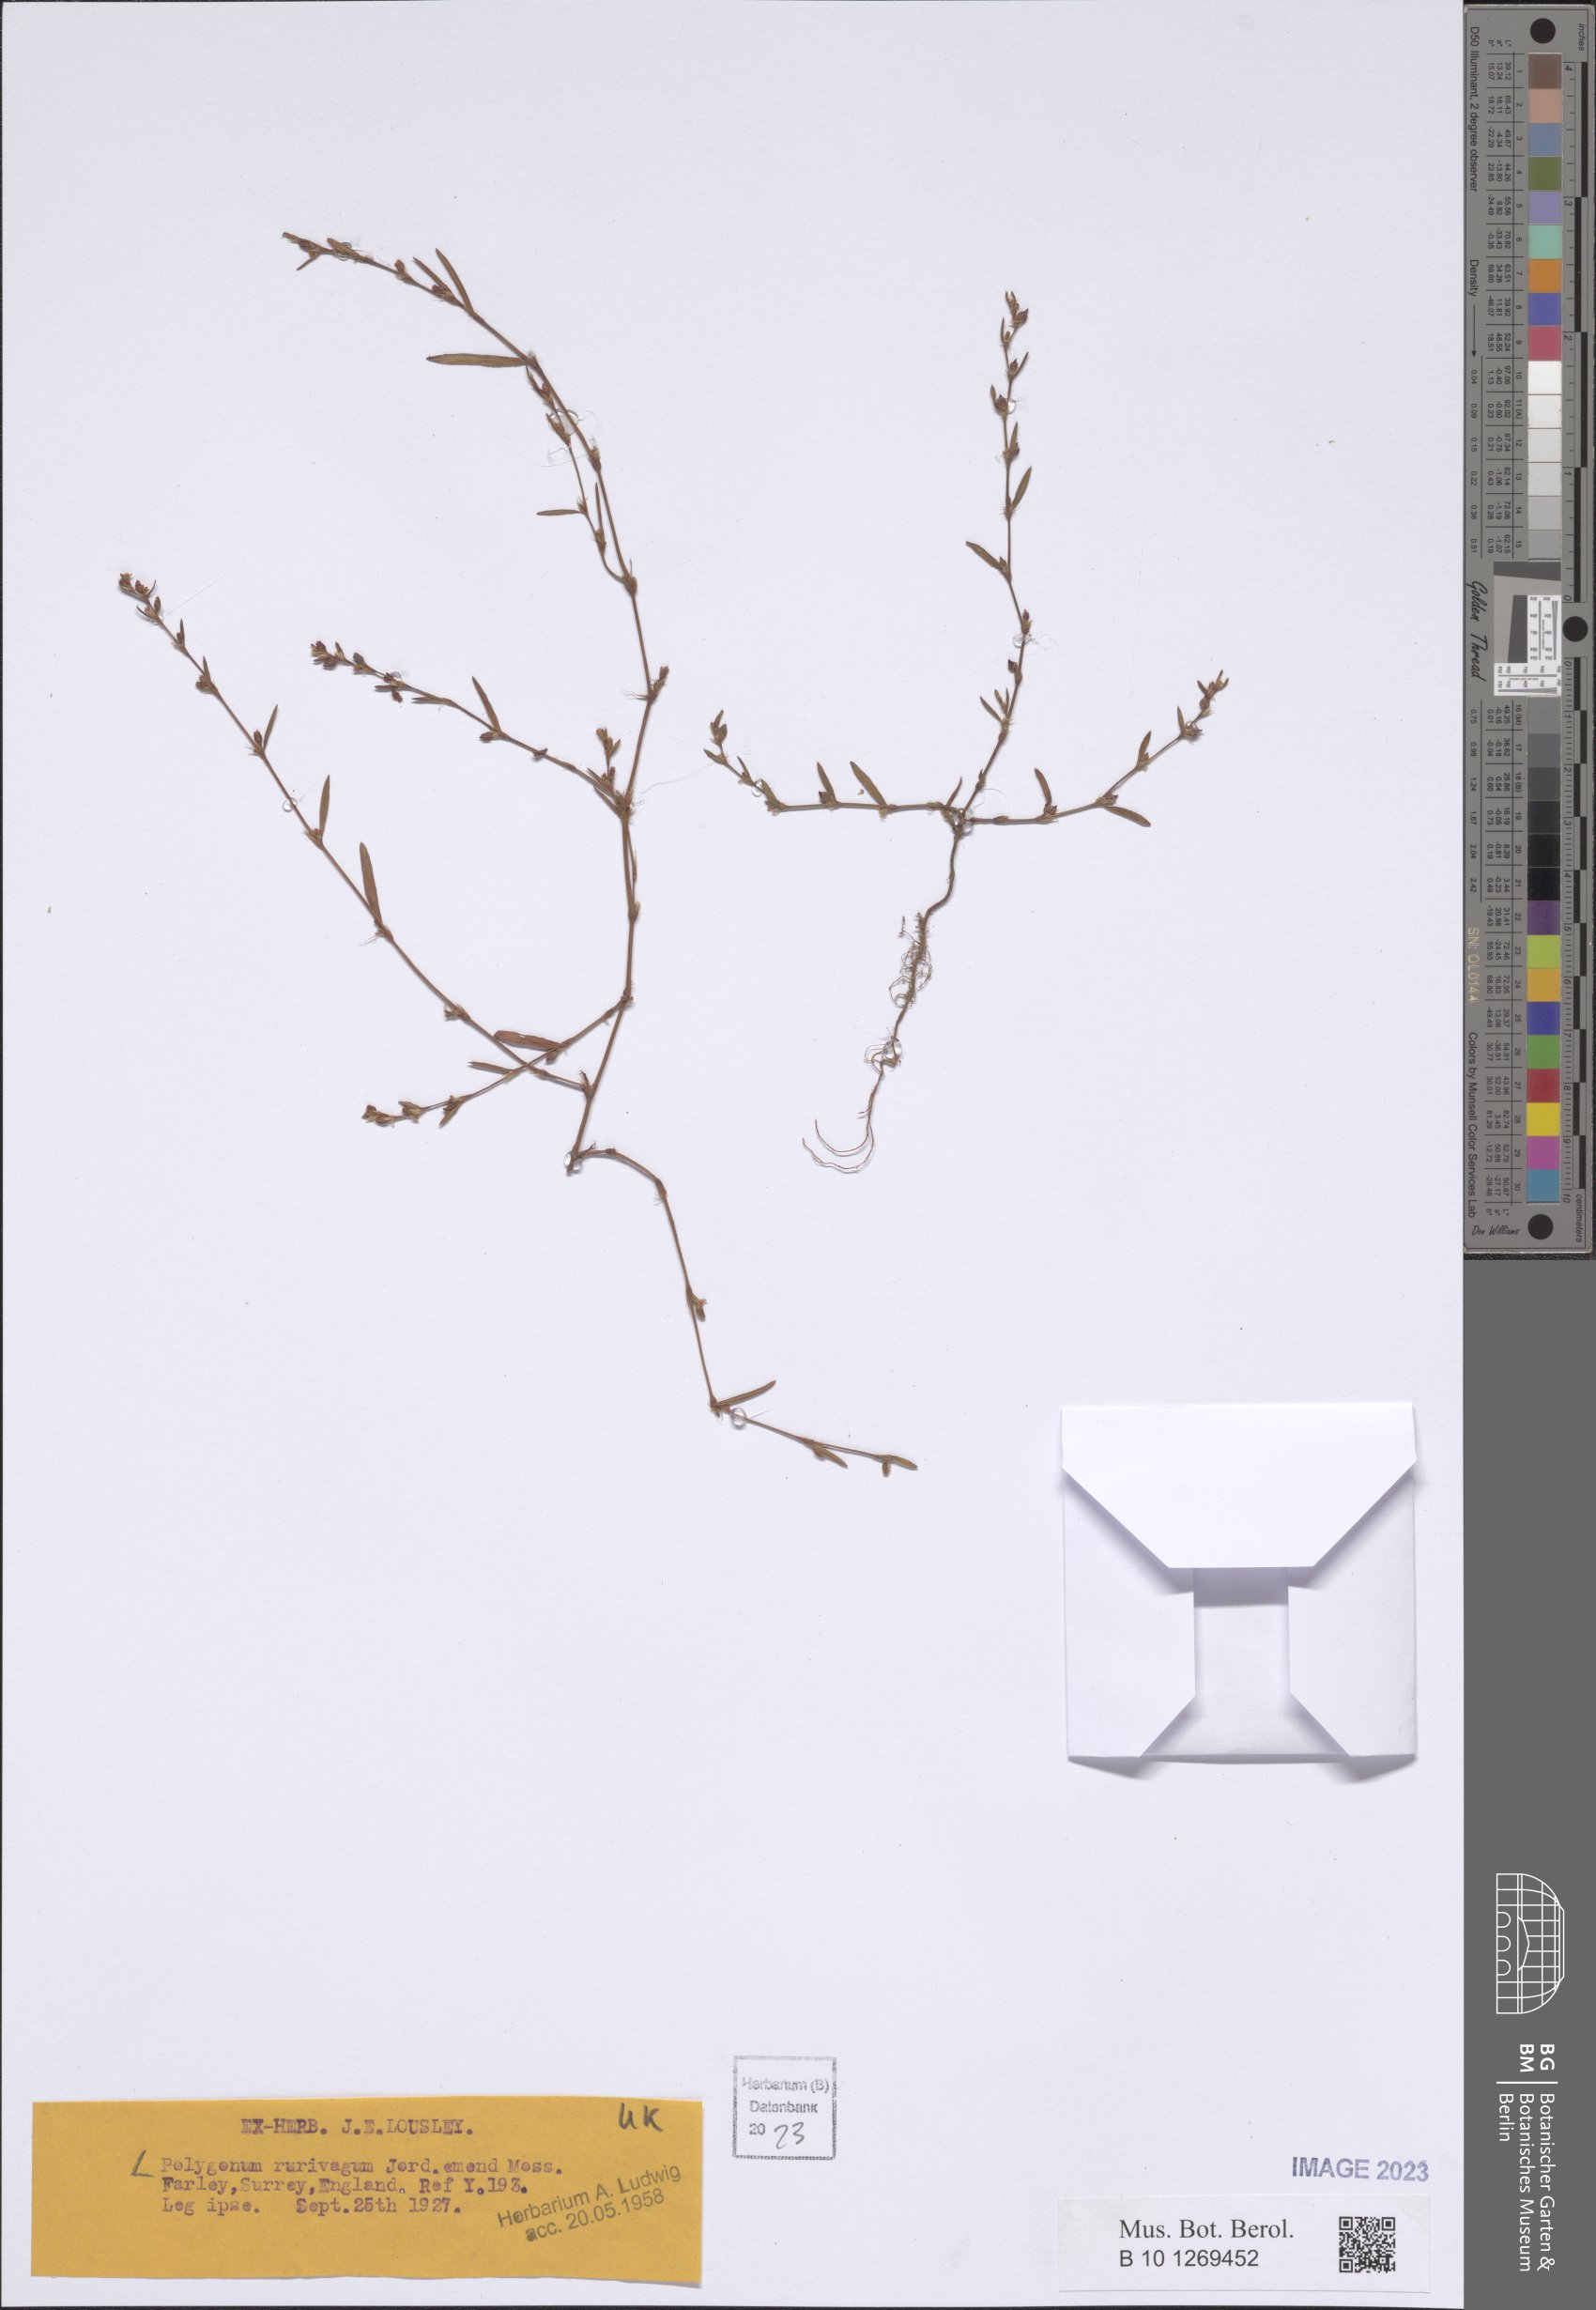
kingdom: Plantae
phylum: Tracheophyta
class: Magnoliopsida
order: Caryophyllales
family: Polygonaceae
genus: Polygonum
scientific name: Polygonum aviculare
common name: Prostrate knotweed
